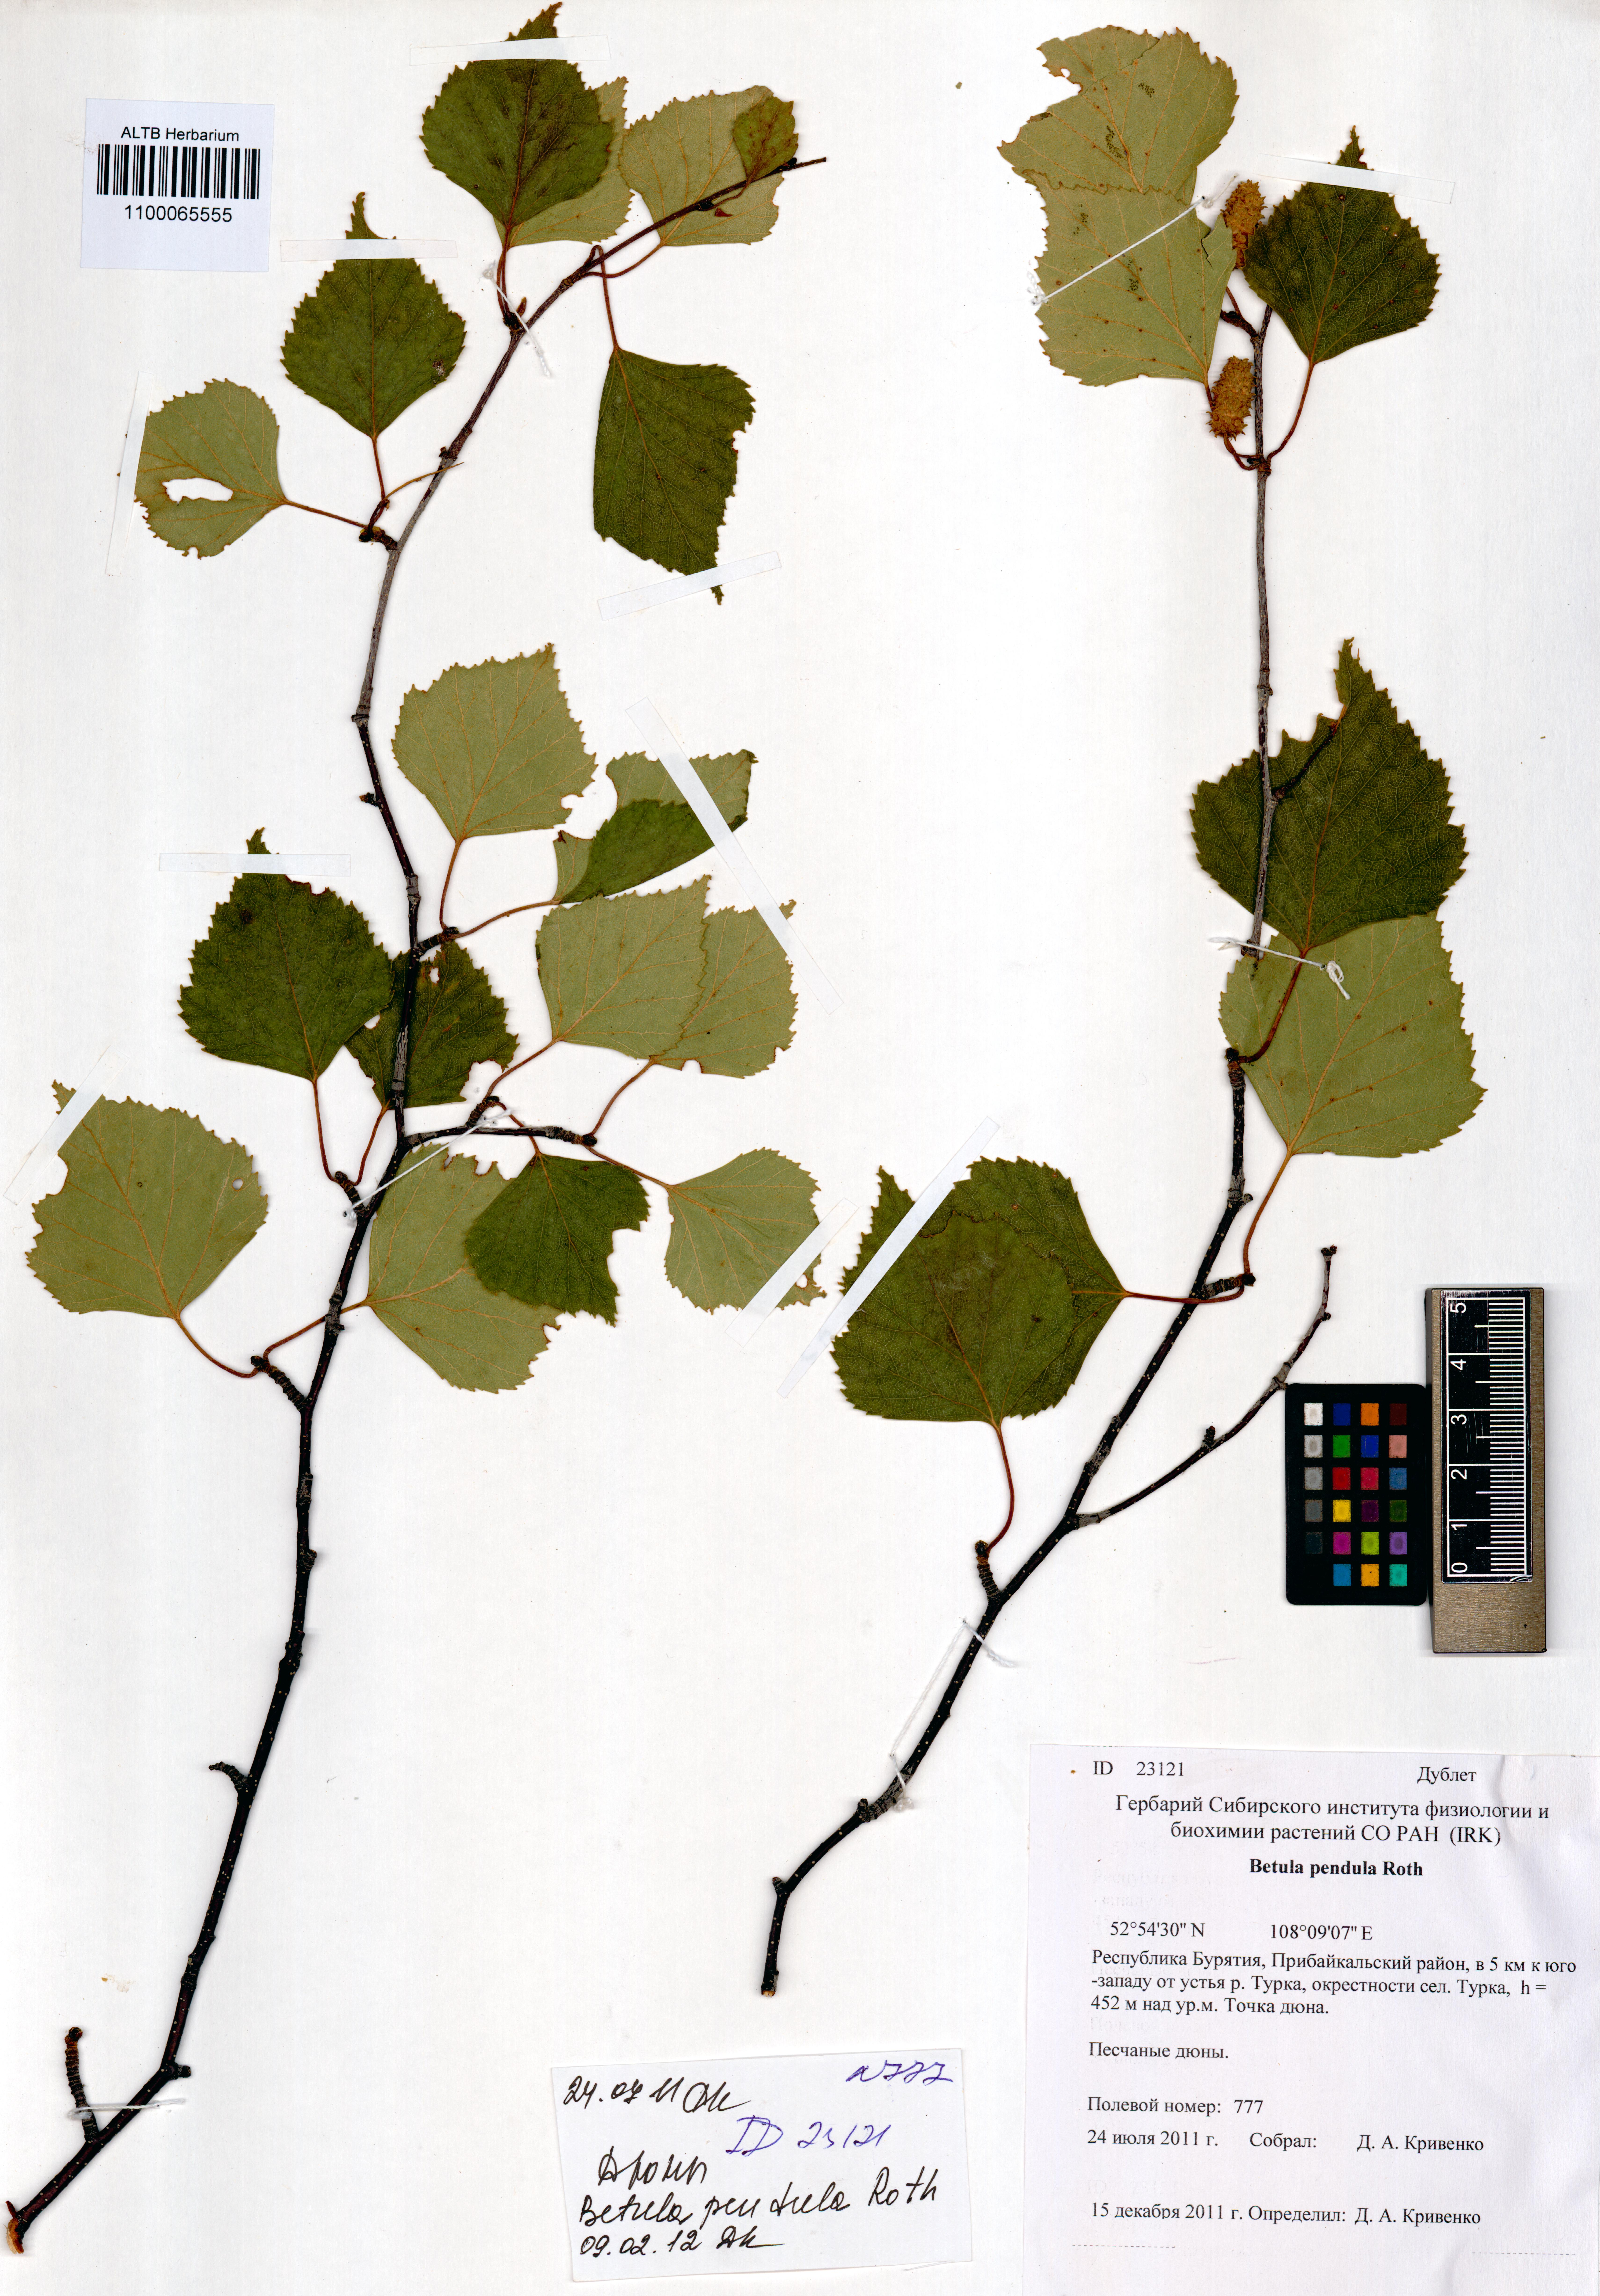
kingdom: Plantae
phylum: Tracheophyta
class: Magnoliopsida
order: Fagales
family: Betulaceae
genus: Betula
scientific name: Betula pendula
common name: Silver birch
